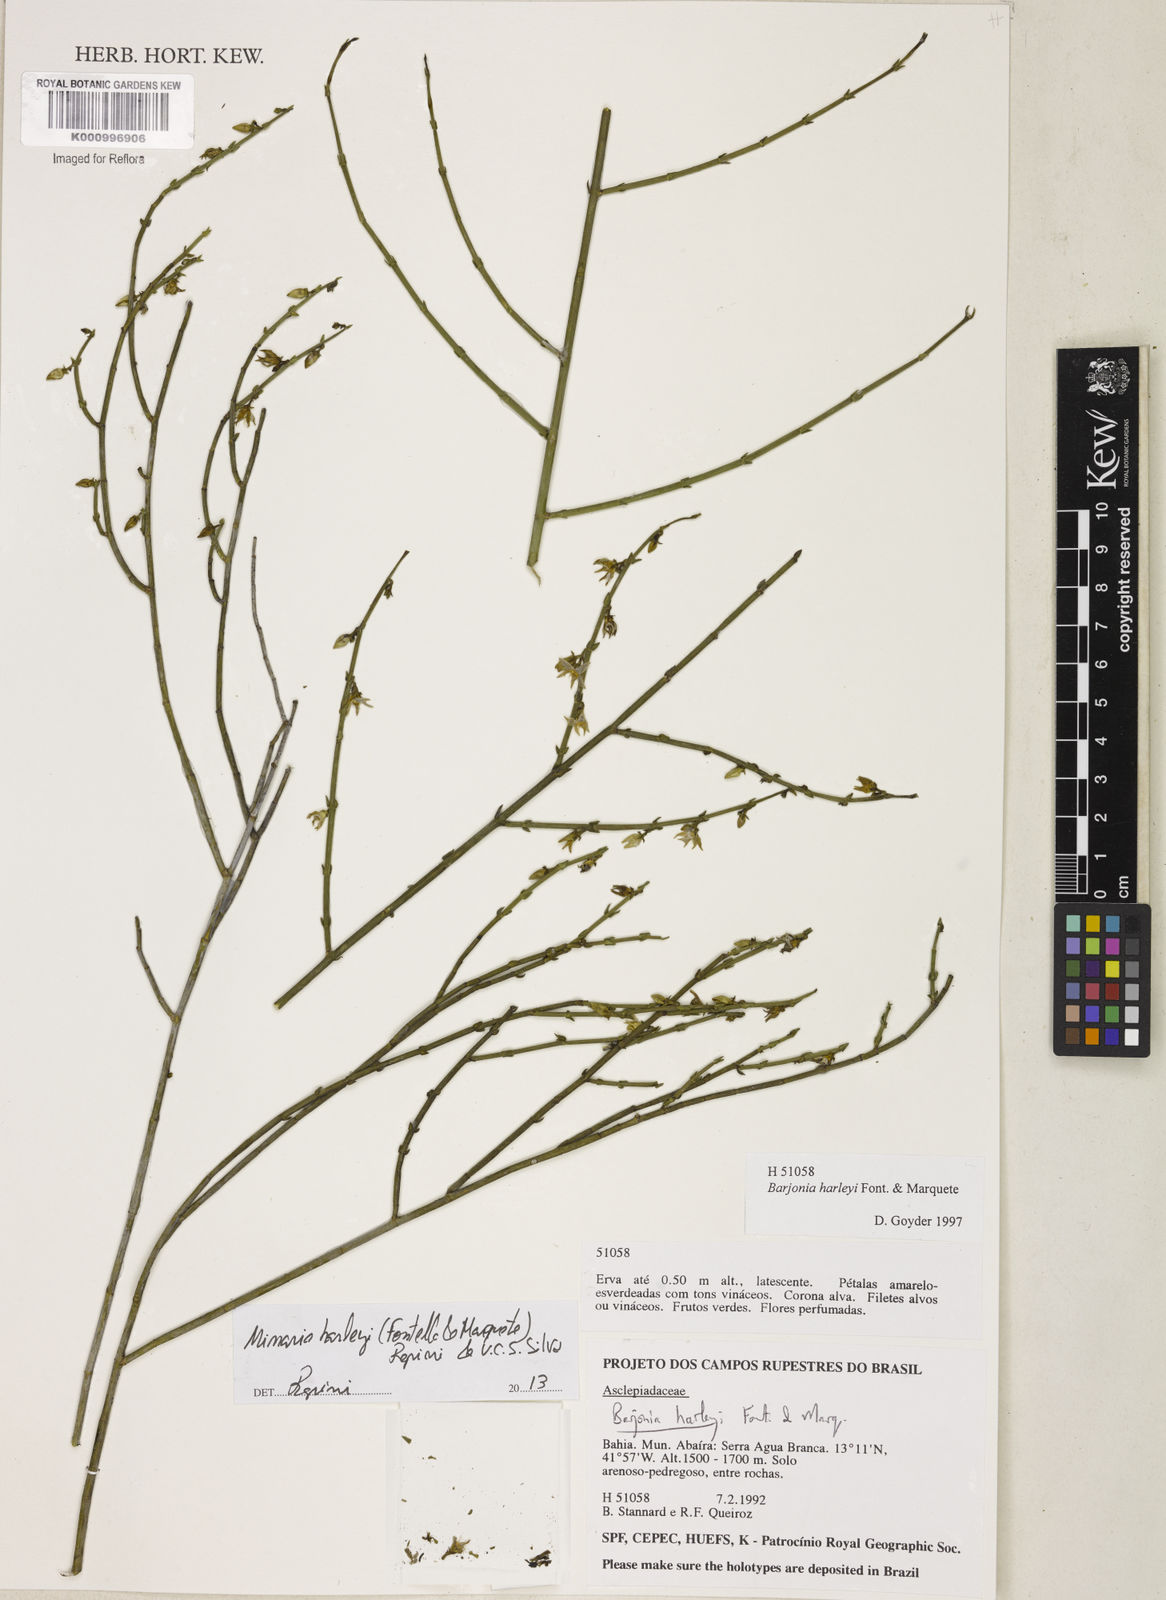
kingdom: Plantae
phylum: Tracheophyta
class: Magnoliopsida
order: Gentianales
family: Apocynaceae
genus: Minaria
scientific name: Minaria cordata
